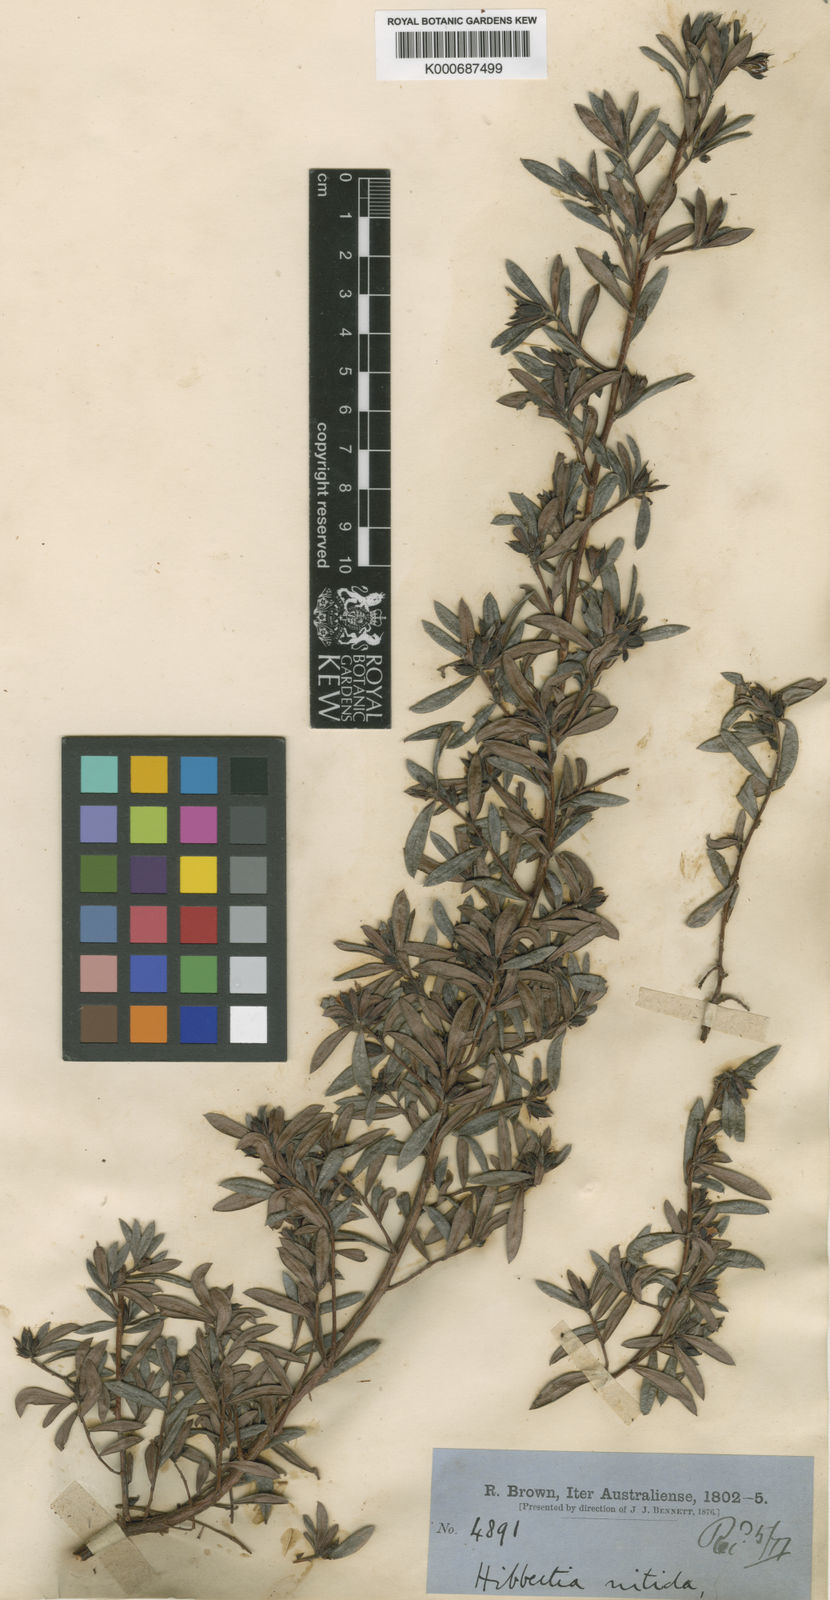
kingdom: Plantae
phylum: Tracheophyta
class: Magnoliopsida
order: Dilleniales
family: Dilleniaceae
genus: Hibbertia
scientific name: Hibbertia nitida
